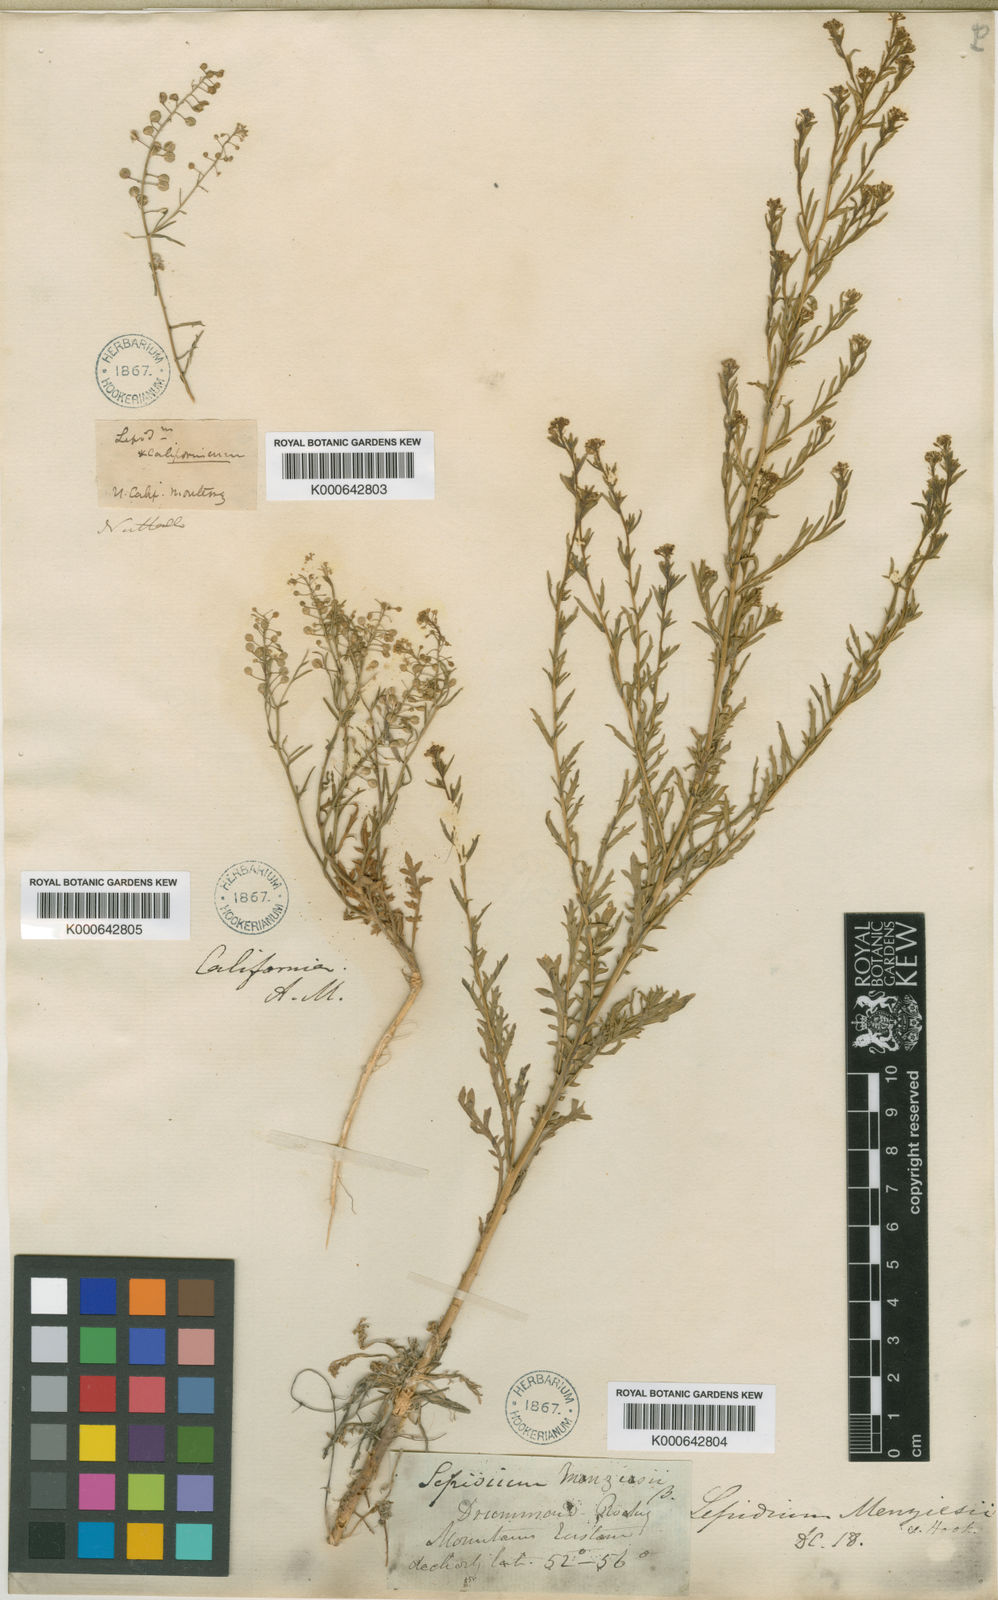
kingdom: Plantae
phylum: Tracheophyta
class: Magnoliopsida
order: Brassicales
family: Brassicaceae
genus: Lepidium
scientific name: Lepidium virginicum
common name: Least pepperwort
